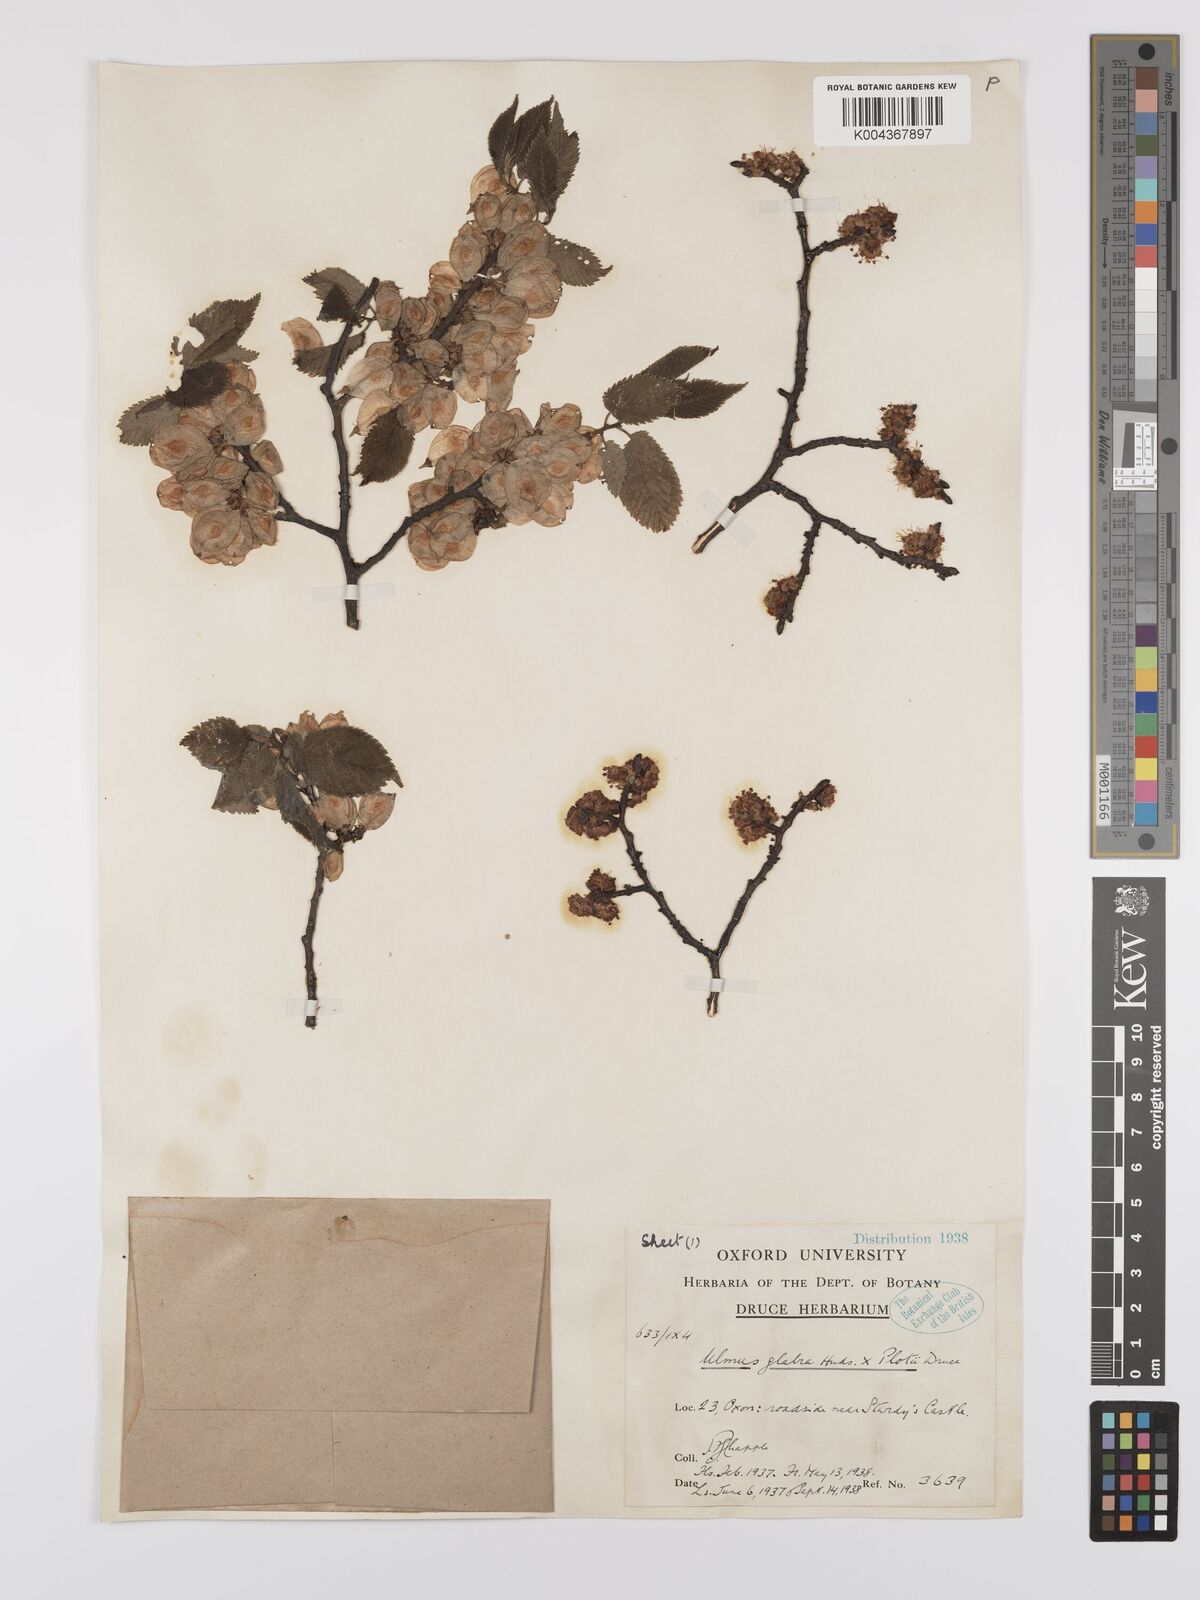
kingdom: Plantae
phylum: Tracheophyta
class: Magnoliopsida
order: Rosales
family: Ulmaceae
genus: Ulmus
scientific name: Ulmus glabra
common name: Wych elm
